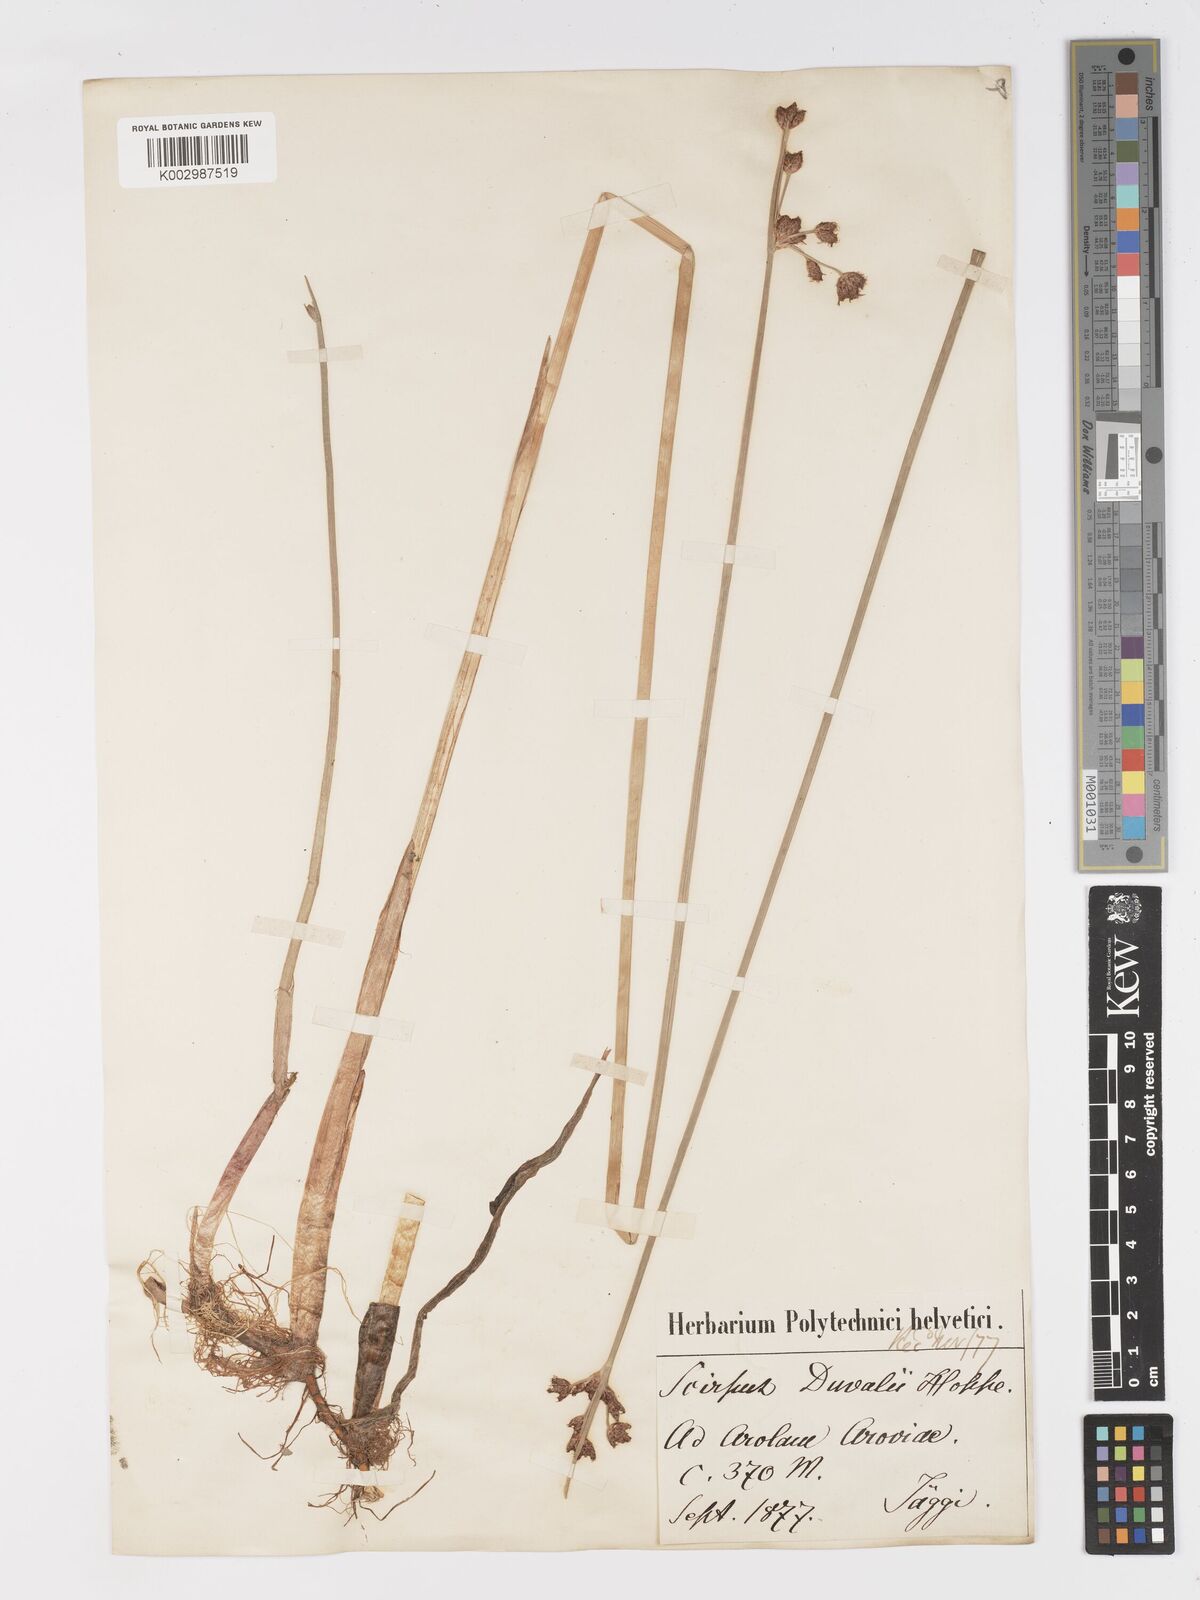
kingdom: Plantae
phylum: Tracheophyta
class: Liliopsida
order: Poales
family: Cyperaceae
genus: Schoenoplectus
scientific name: Schoenoplectus lacustris
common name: Common club-rush
